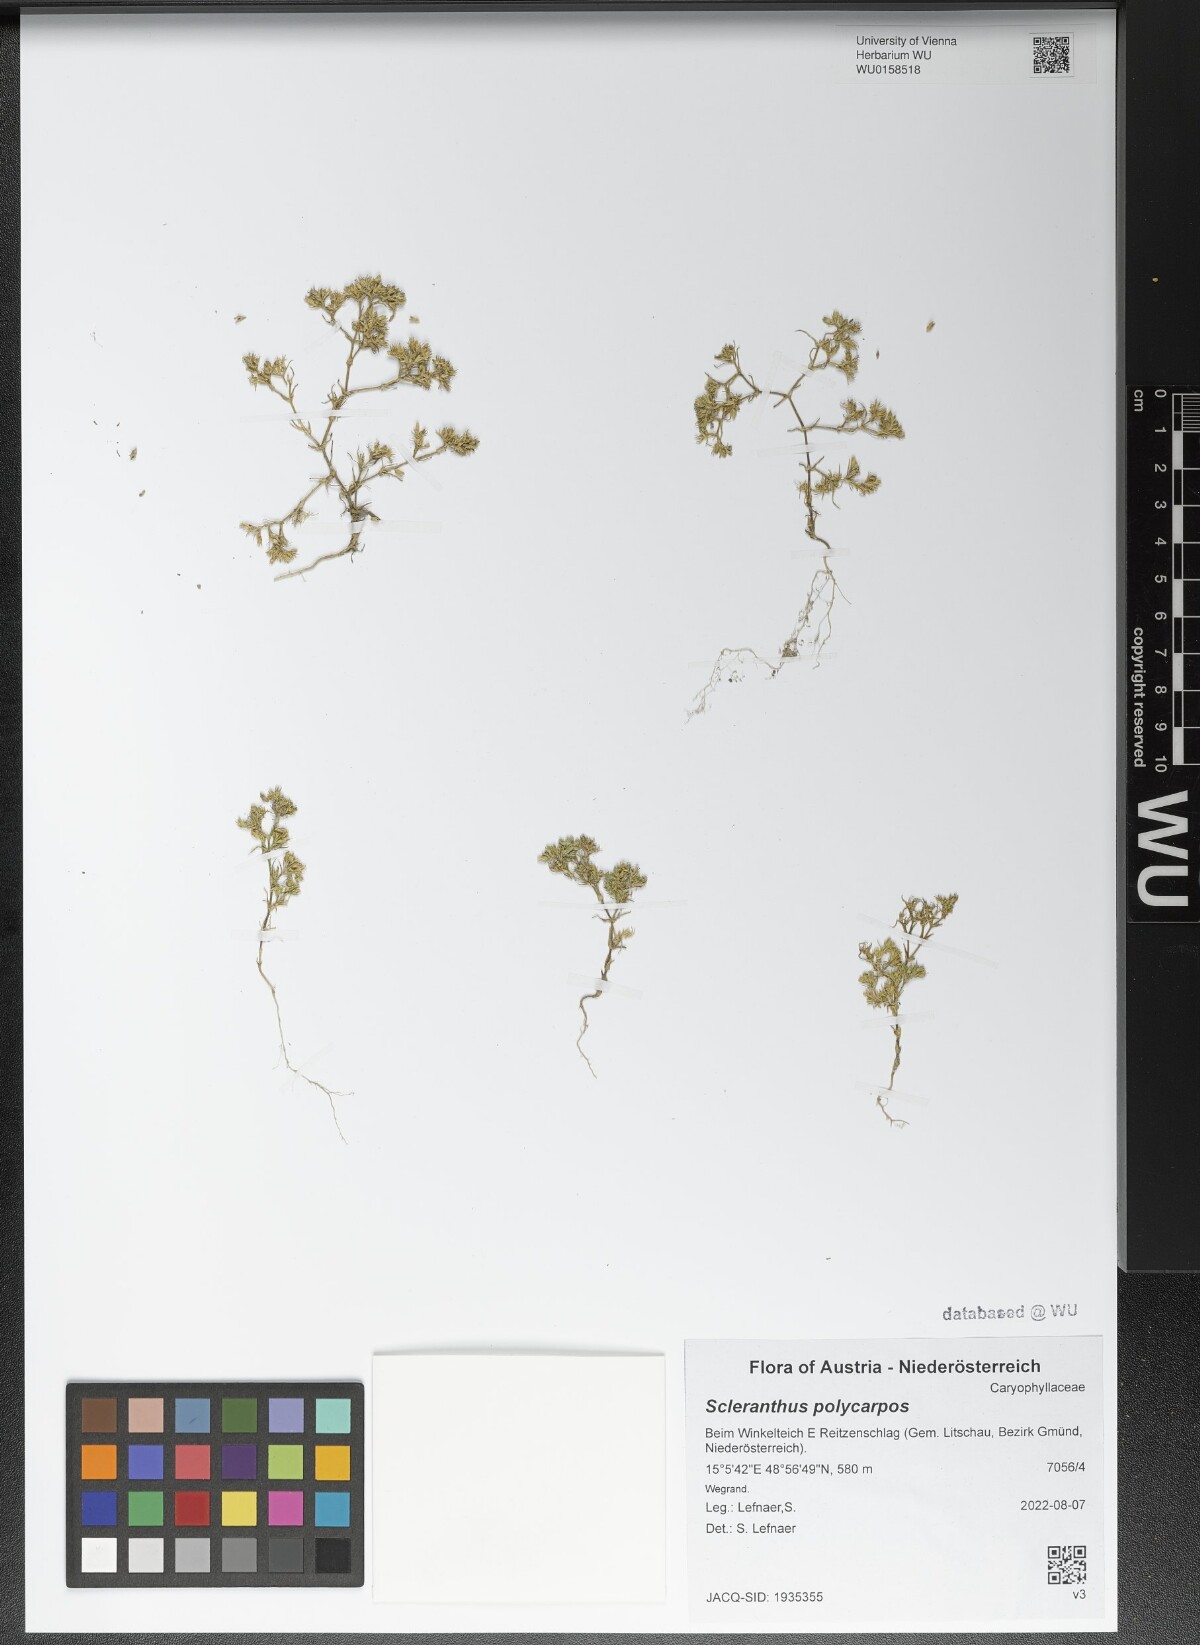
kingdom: Plantae
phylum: Tracheophyta
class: Magnoliopsida
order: Caryophyllales
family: Caryophyllaceae
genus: Scleranthus
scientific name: Scleranthus annuus
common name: Annual knawel
